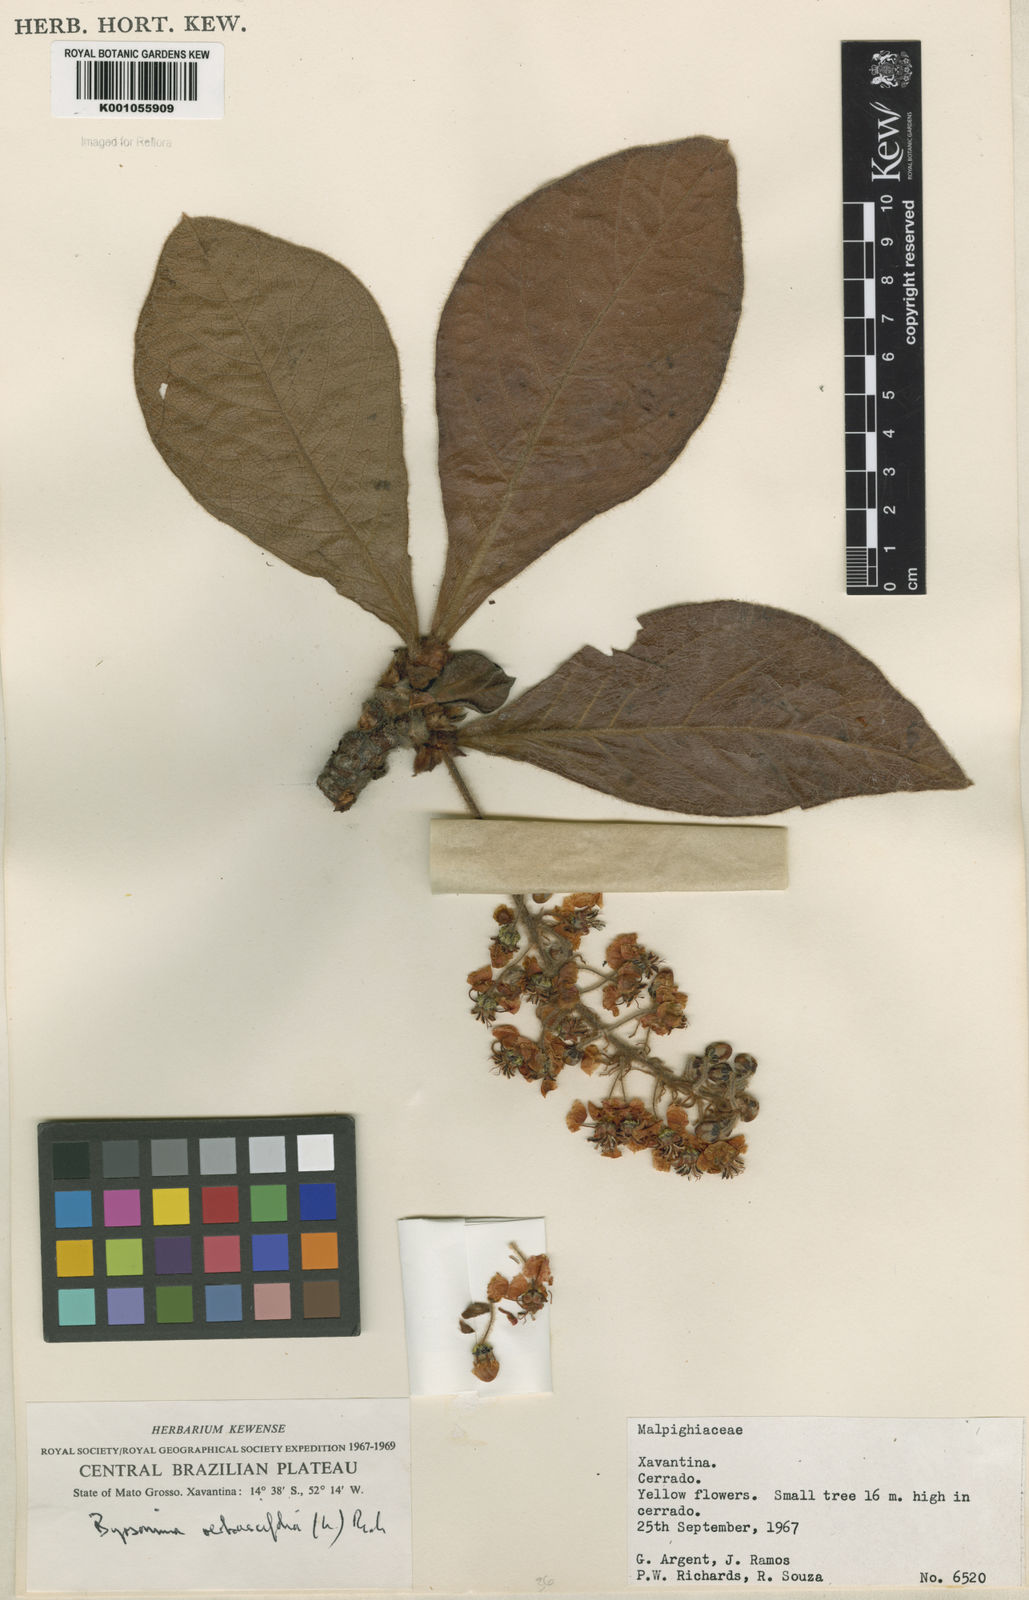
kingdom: Plantae
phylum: Tracheophyta
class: Magnoliopsida
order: Malpighiales
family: Malpighiaceae
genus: Byrsonima
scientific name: Byrsonima verbascifolia
